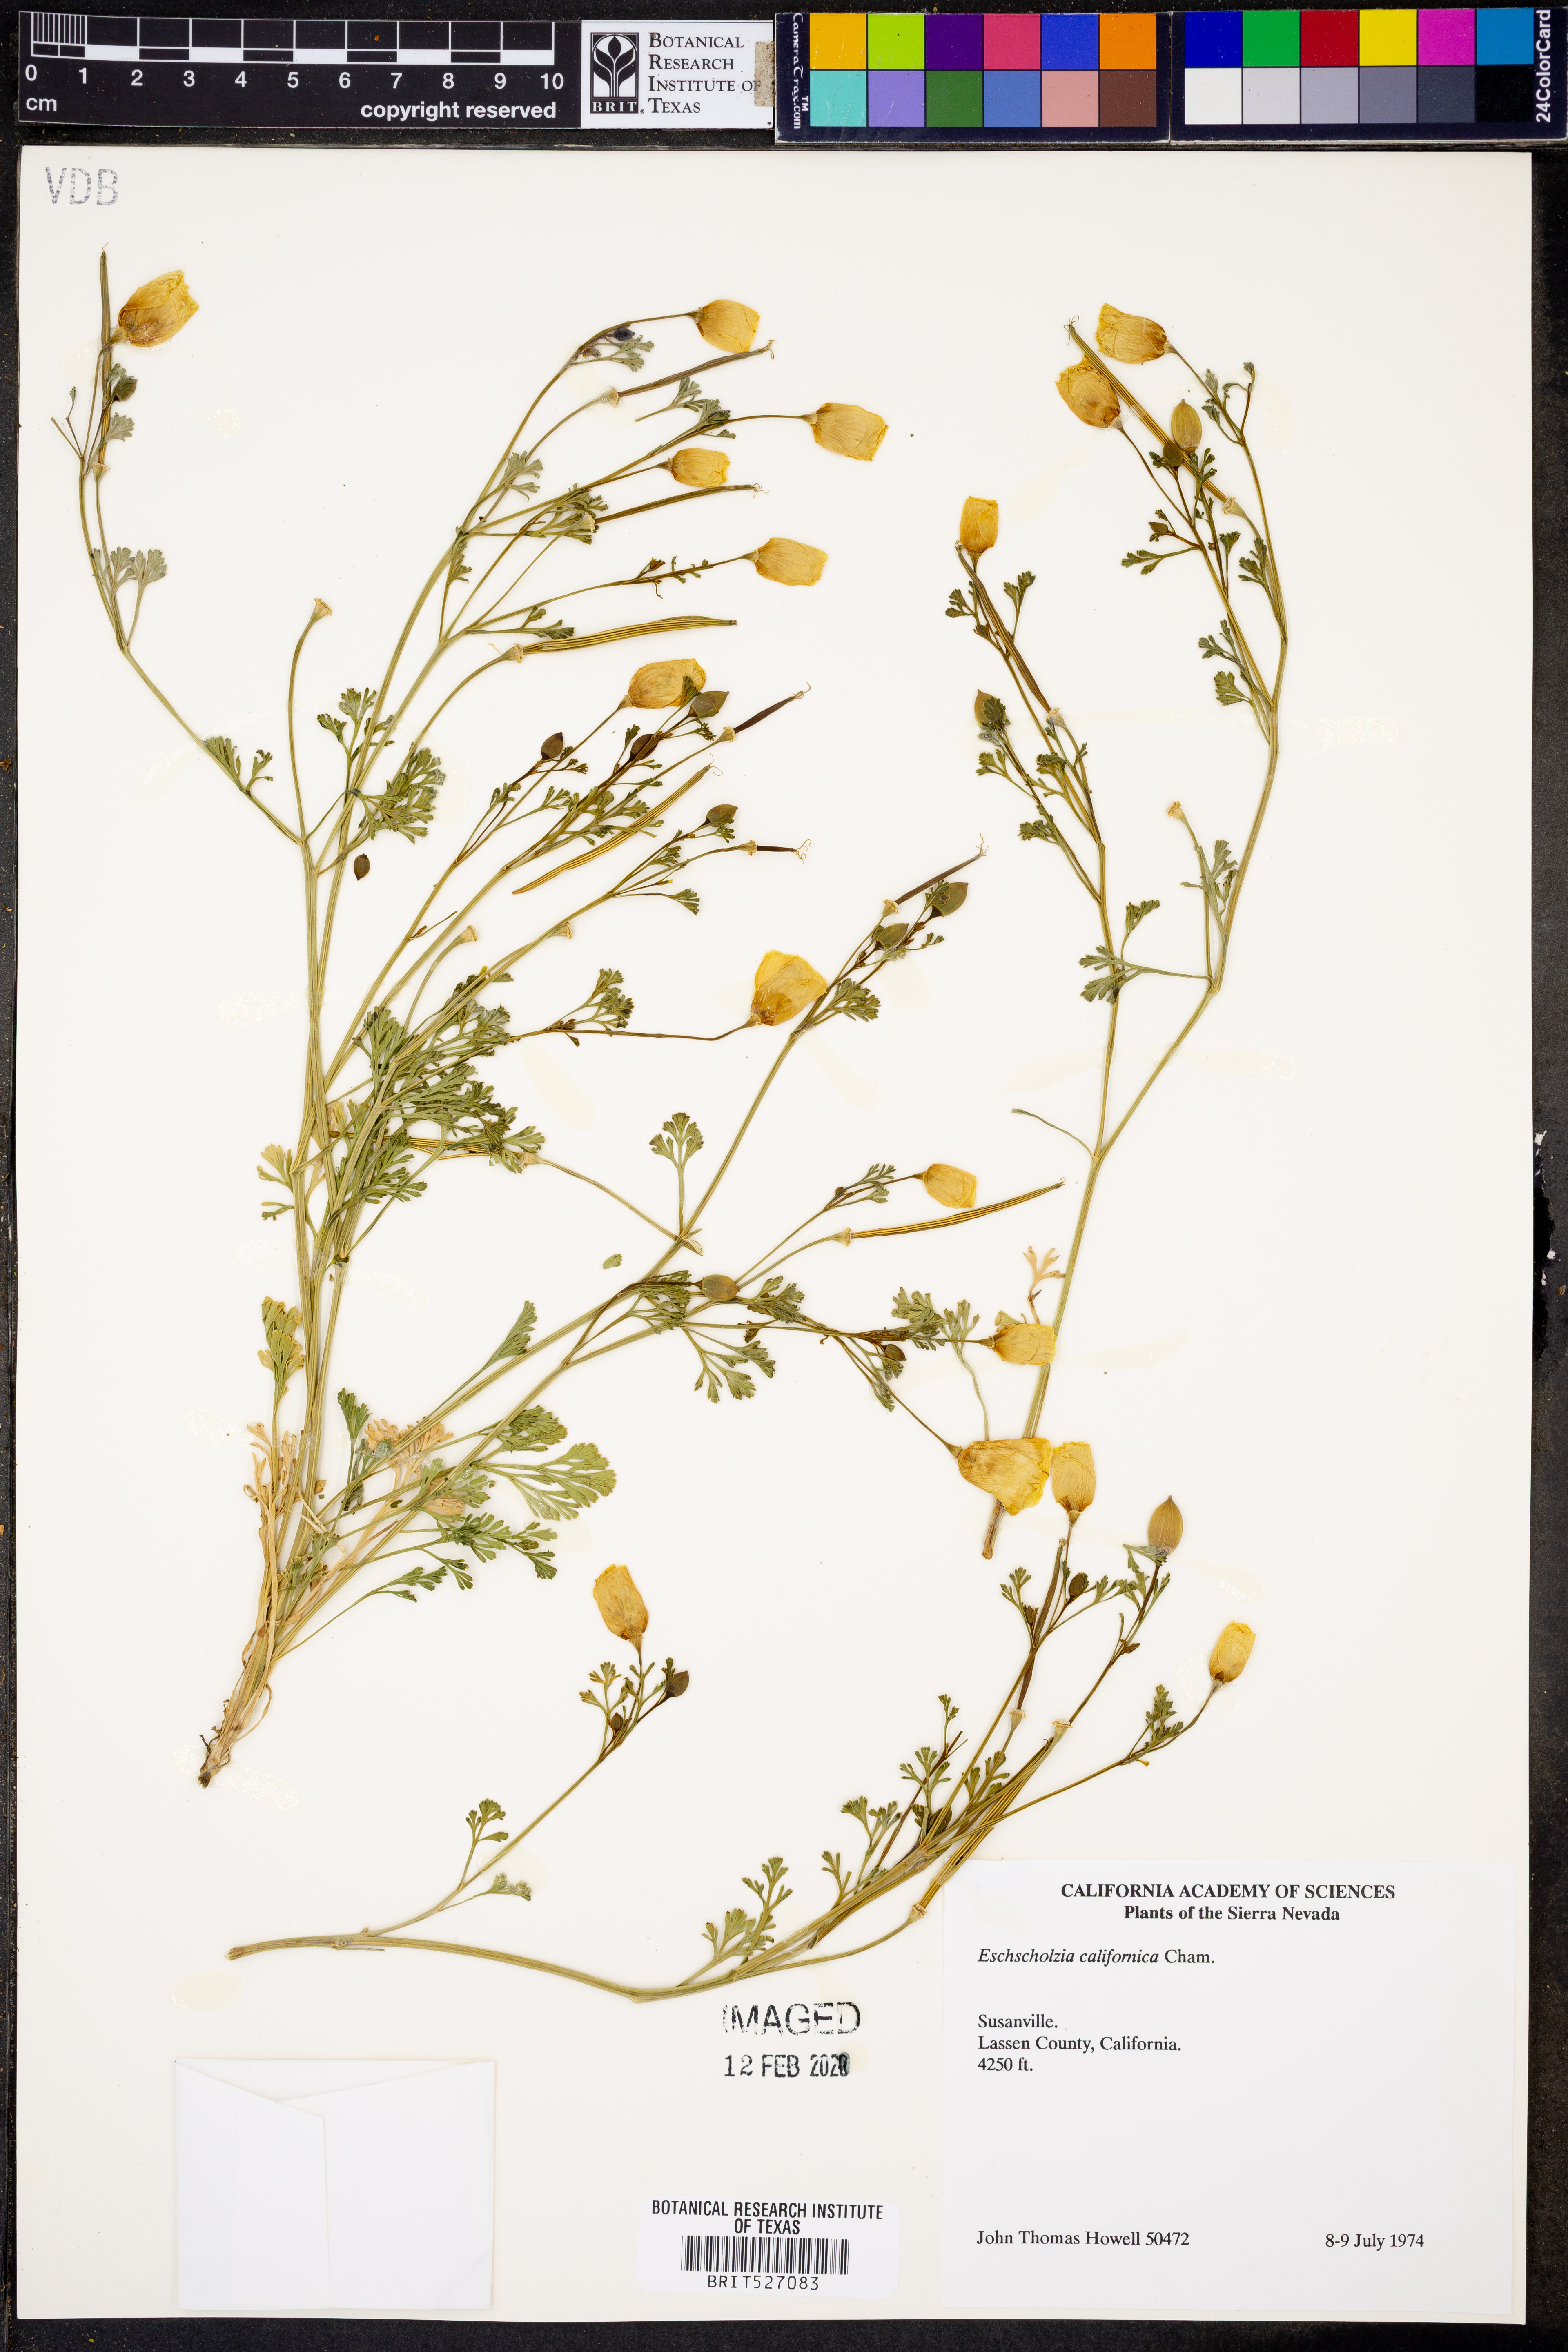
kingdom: Plantae
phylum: Tracheophyta
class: Magnoliopsida
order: Ranunculales
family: Papaveraceae
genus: Eschscholzia
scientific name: Eschscholzia californica
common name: California poppy
